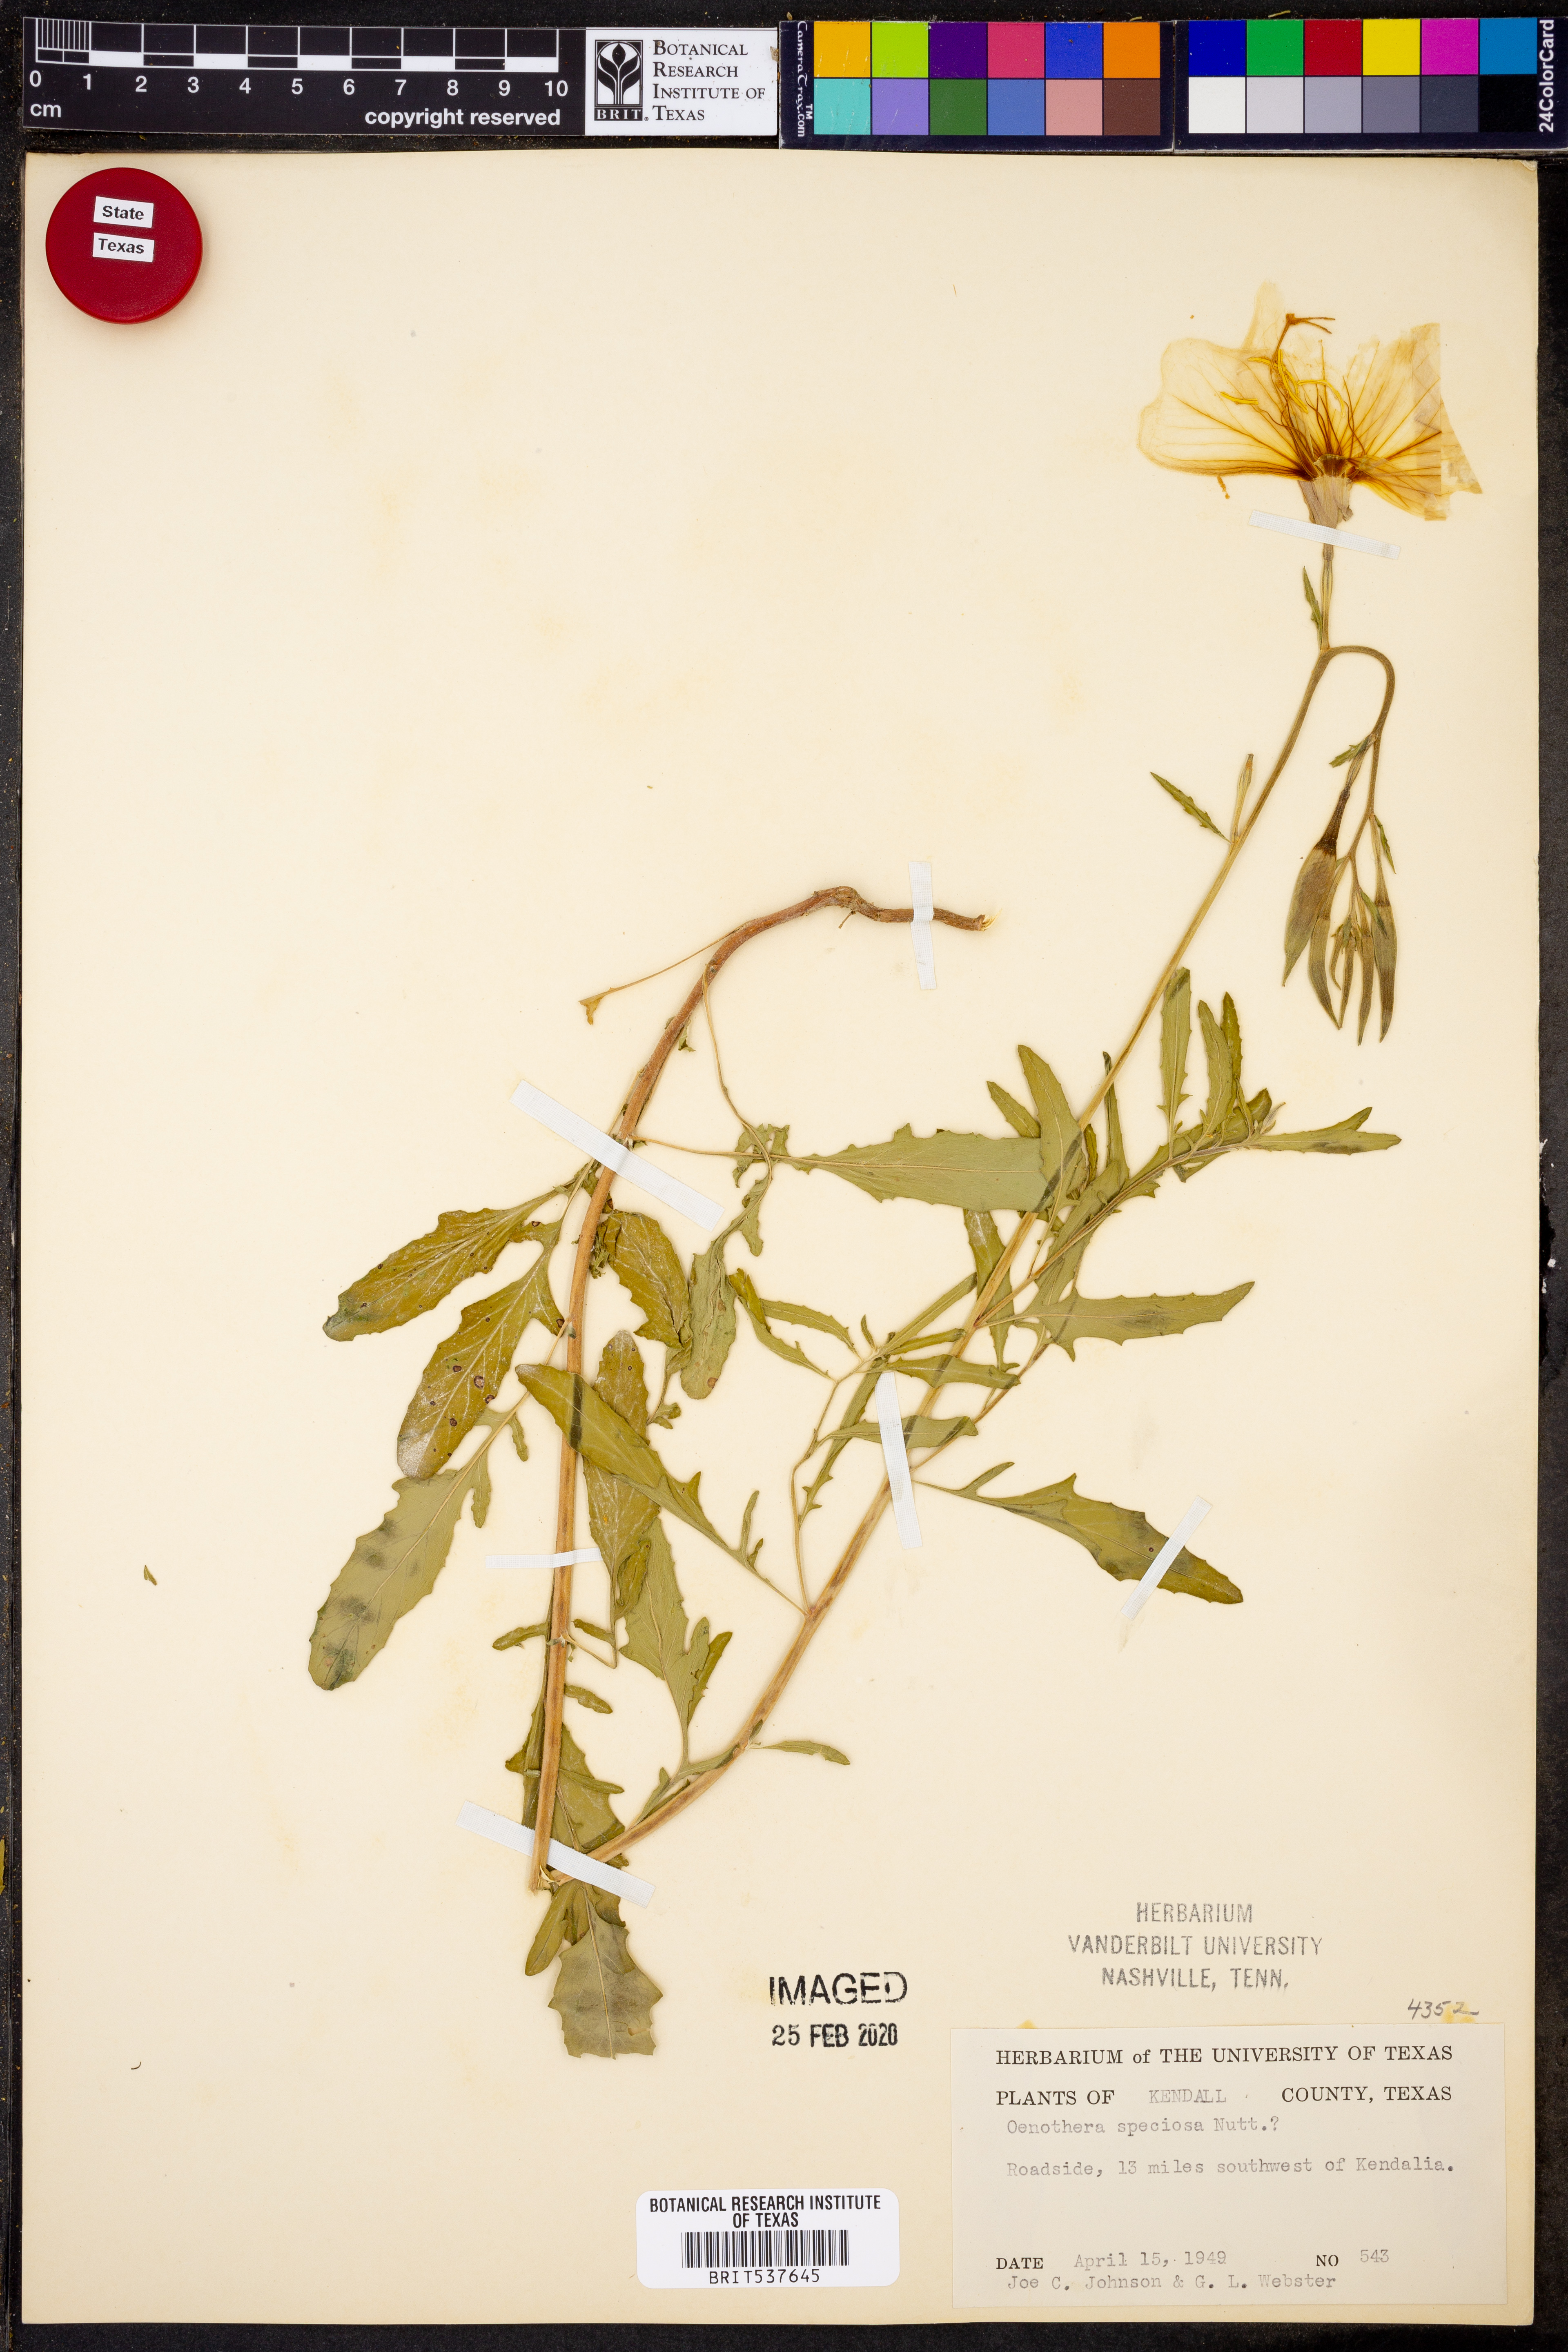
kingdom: Plantae
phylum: Tracheophyta
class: Magnoliopsida
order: Myrtales
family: Onagraceae
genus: Oenothera
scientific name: Oenothera speciosa
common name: White evening-primrose
